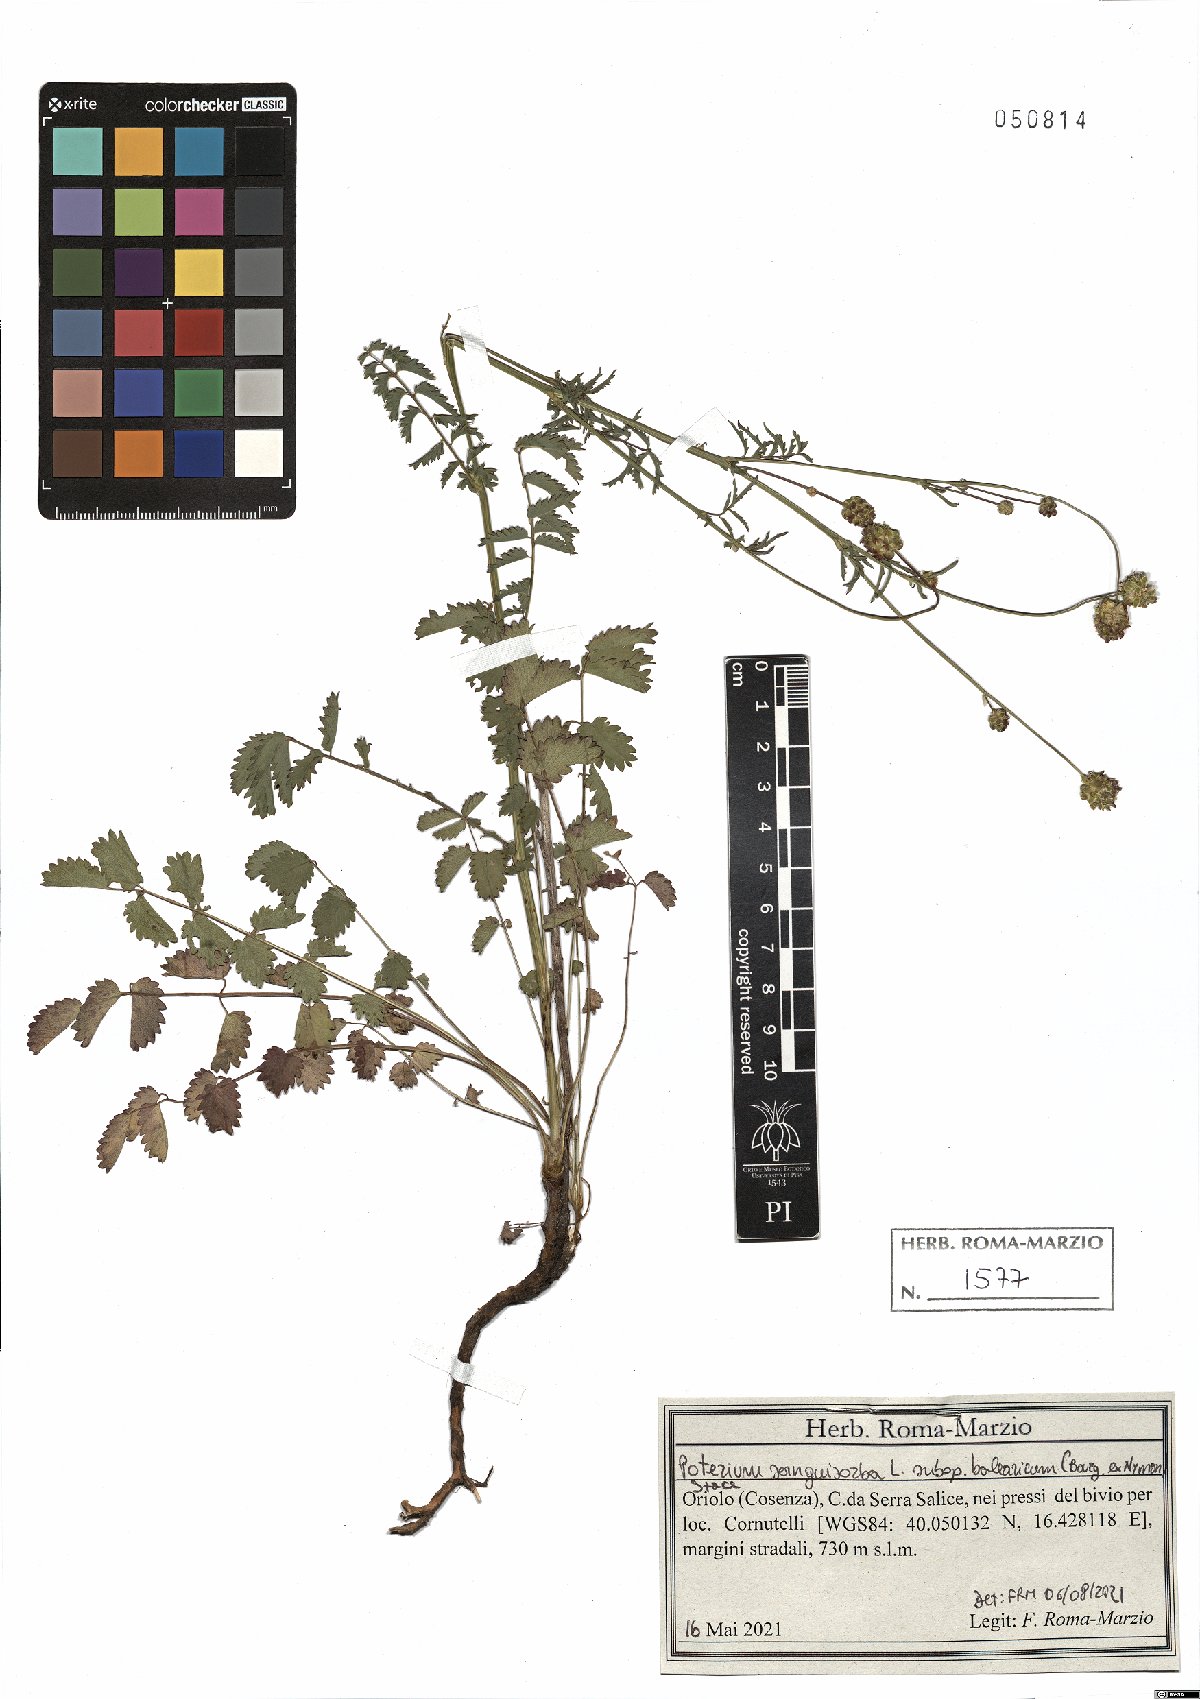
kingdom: Plantae
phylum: Tracheophyta
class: Magnoliopsida
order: Rosales
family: Rosaceae
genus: Poterium
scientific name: Poterium sanguisorba
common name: Salad burnet
